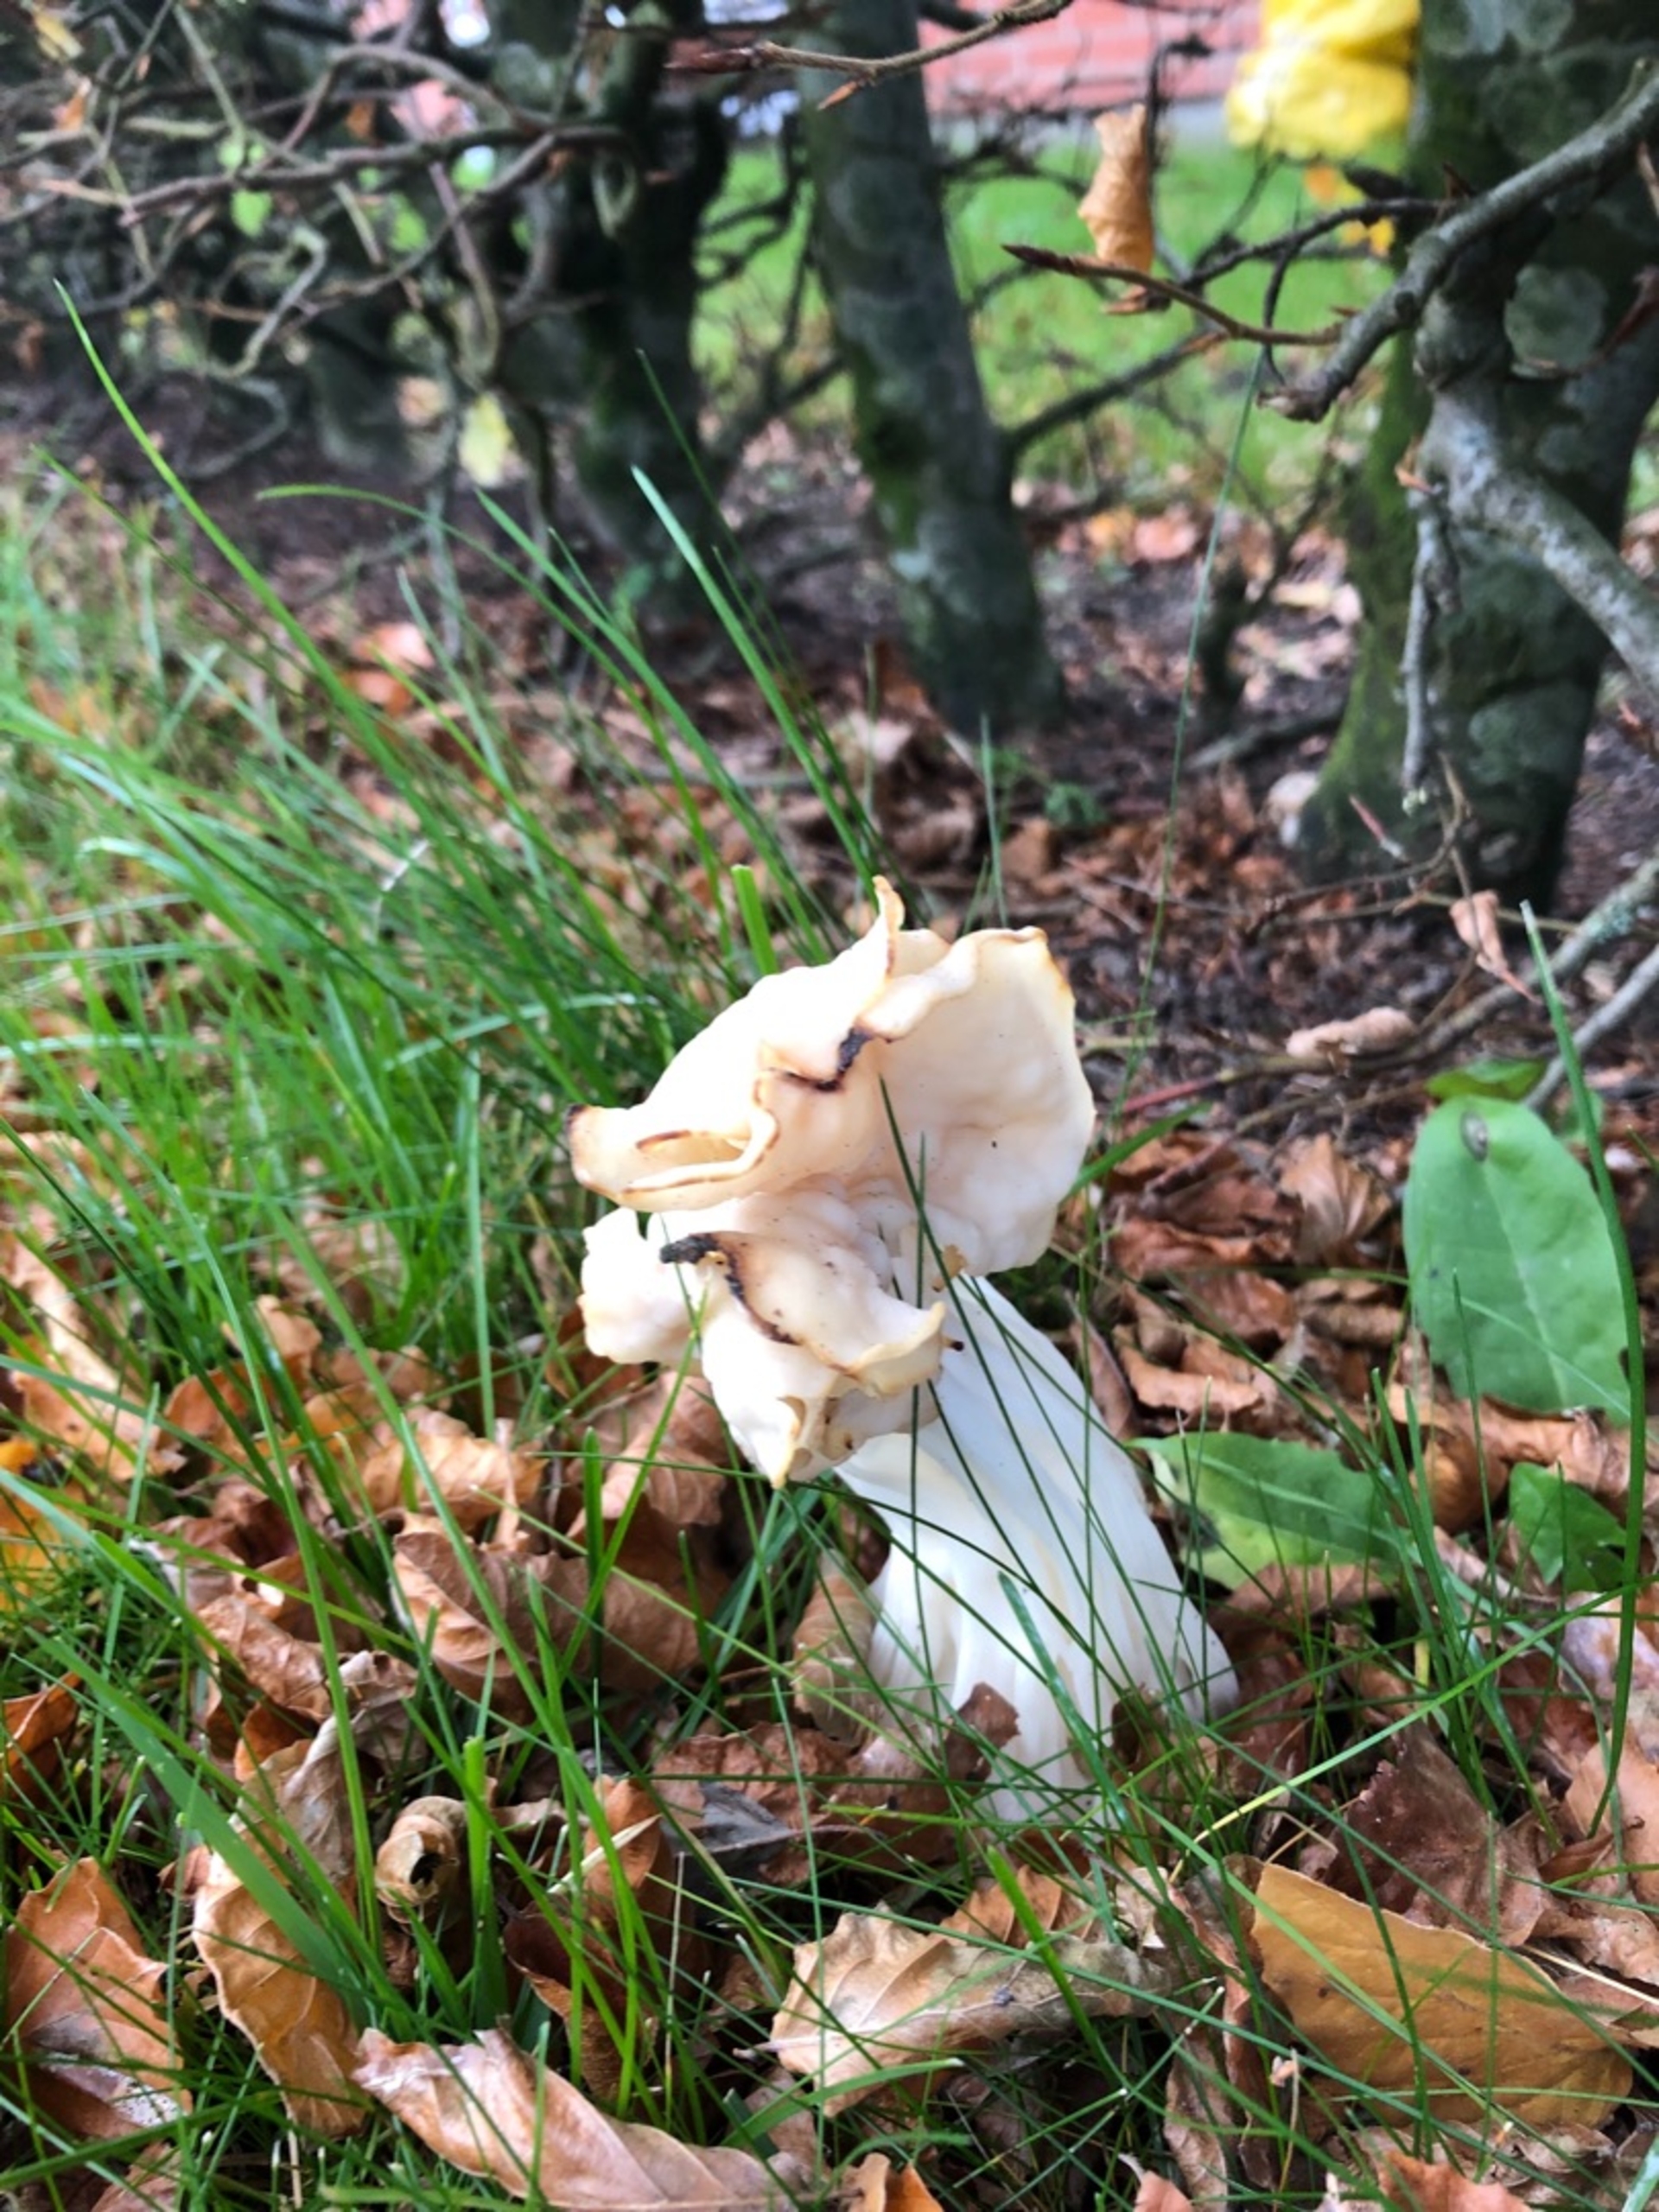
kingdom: Fungi
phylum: Ascomycota
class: Pezizomycetes
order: Pezizales
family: Helvellaceae
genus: Helvella
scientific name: Helvella crispa
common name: Kruset foldhat
